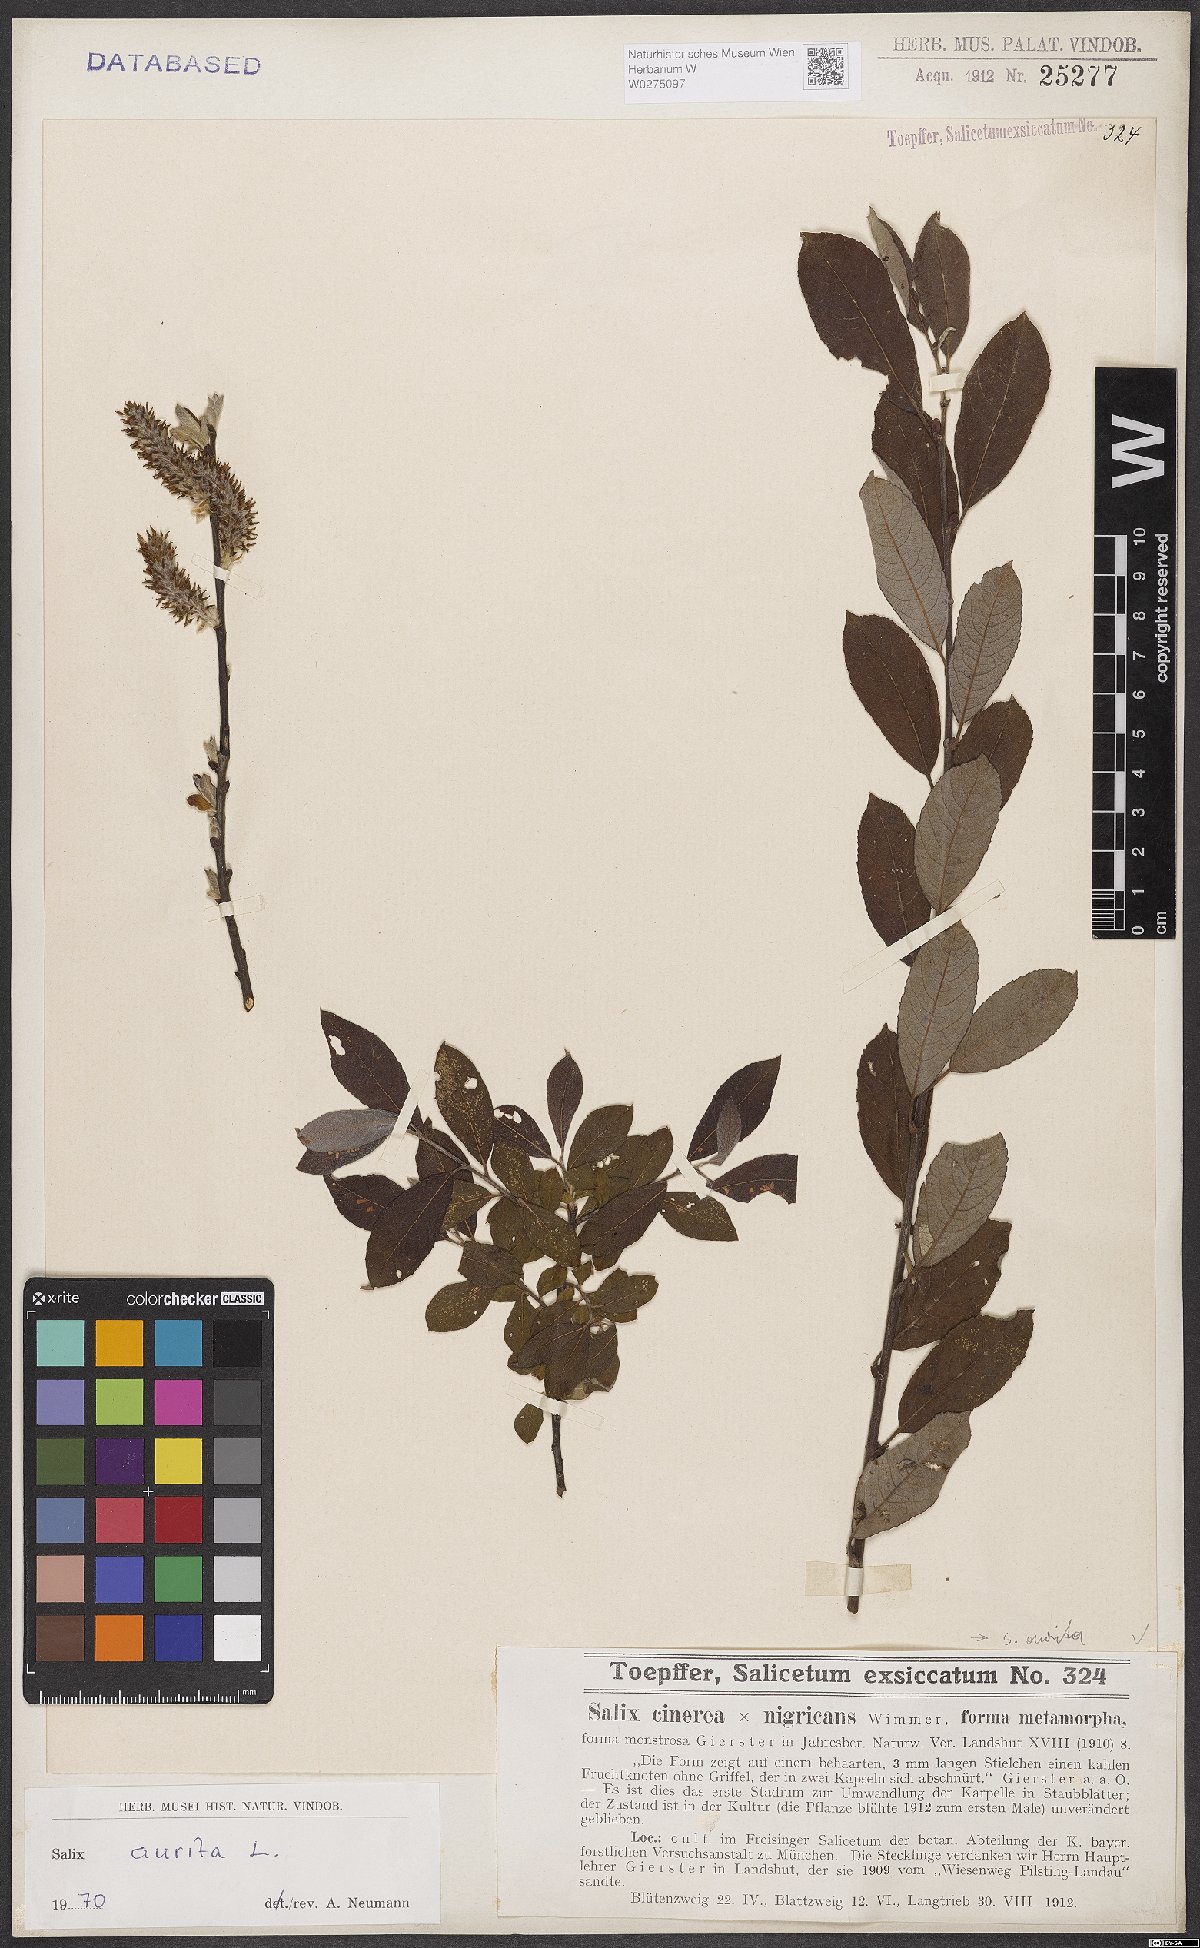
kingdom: Plantae
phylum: Tracheophyta
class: Magnoliopsida
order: Malpighiales
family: Salicaceae
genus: Salix
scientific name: Salix aurita
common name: Eared willow
